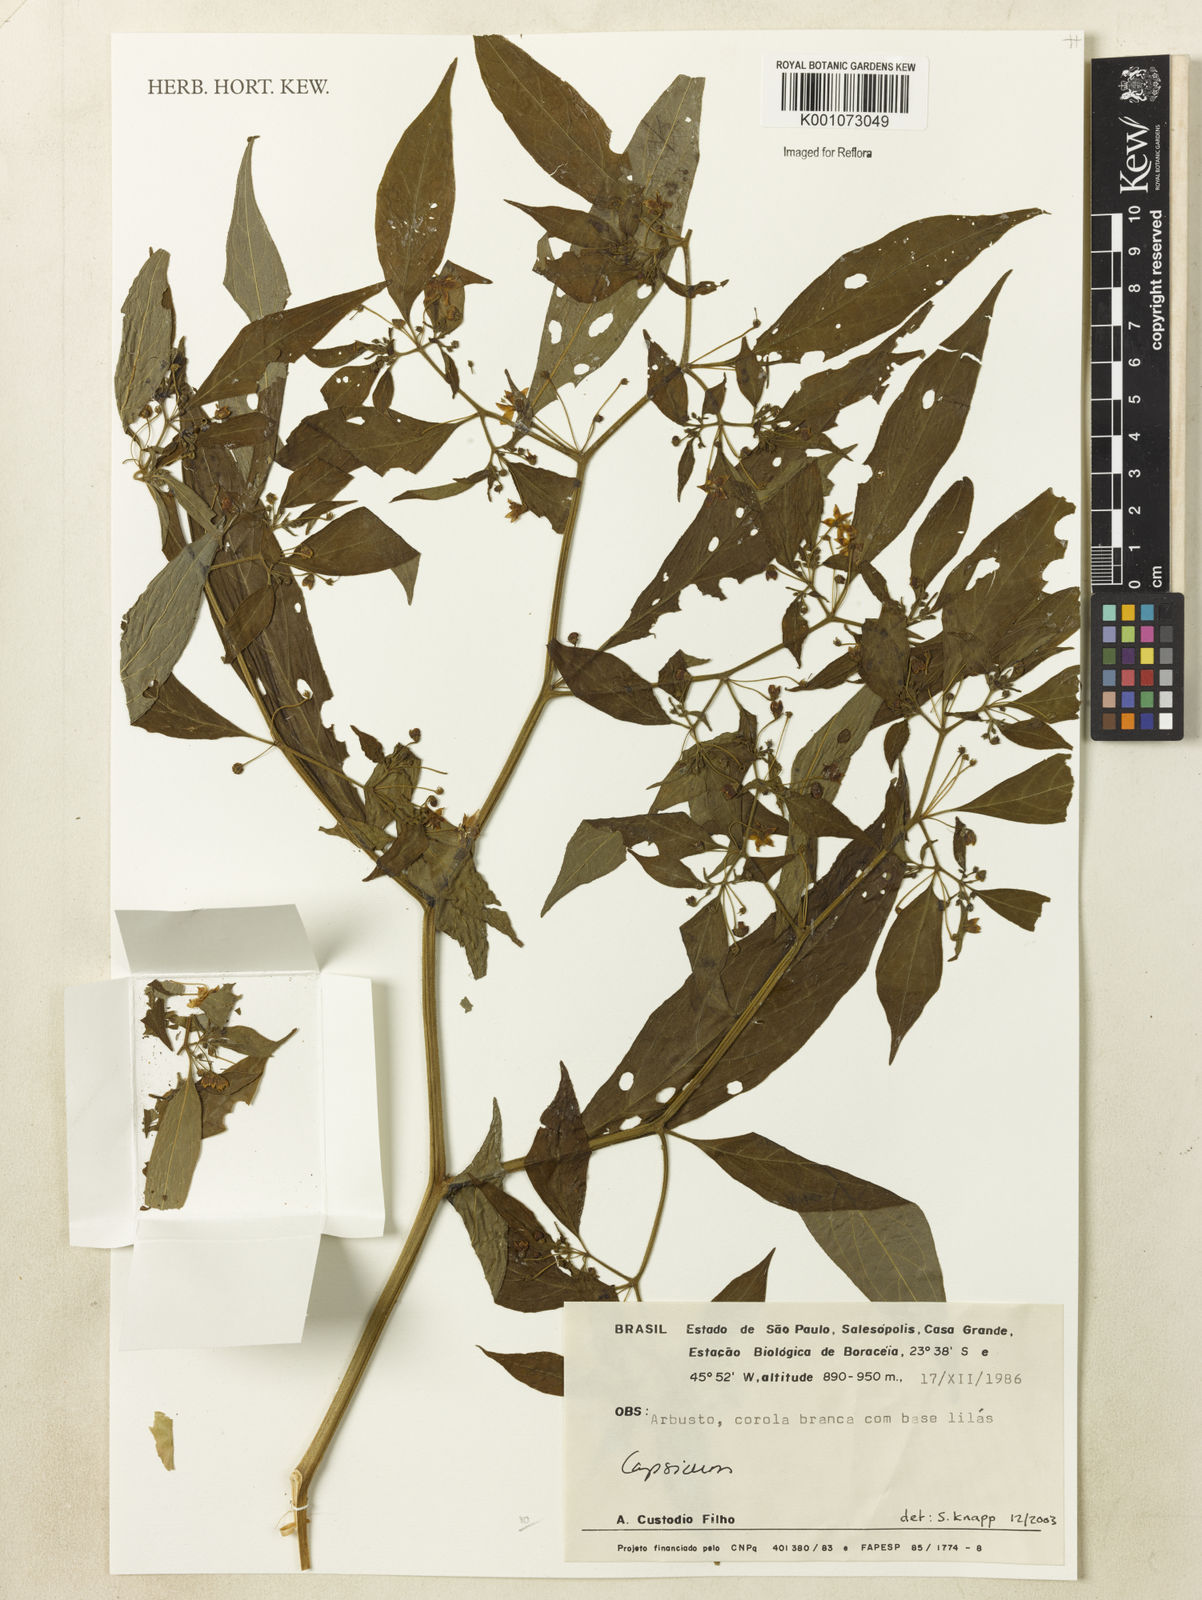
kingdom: Plantae
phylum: Tracheophyta
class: Magnoliopsida
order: Solanales
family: Solanaceae
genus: Capsicum
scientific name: Capsicum
